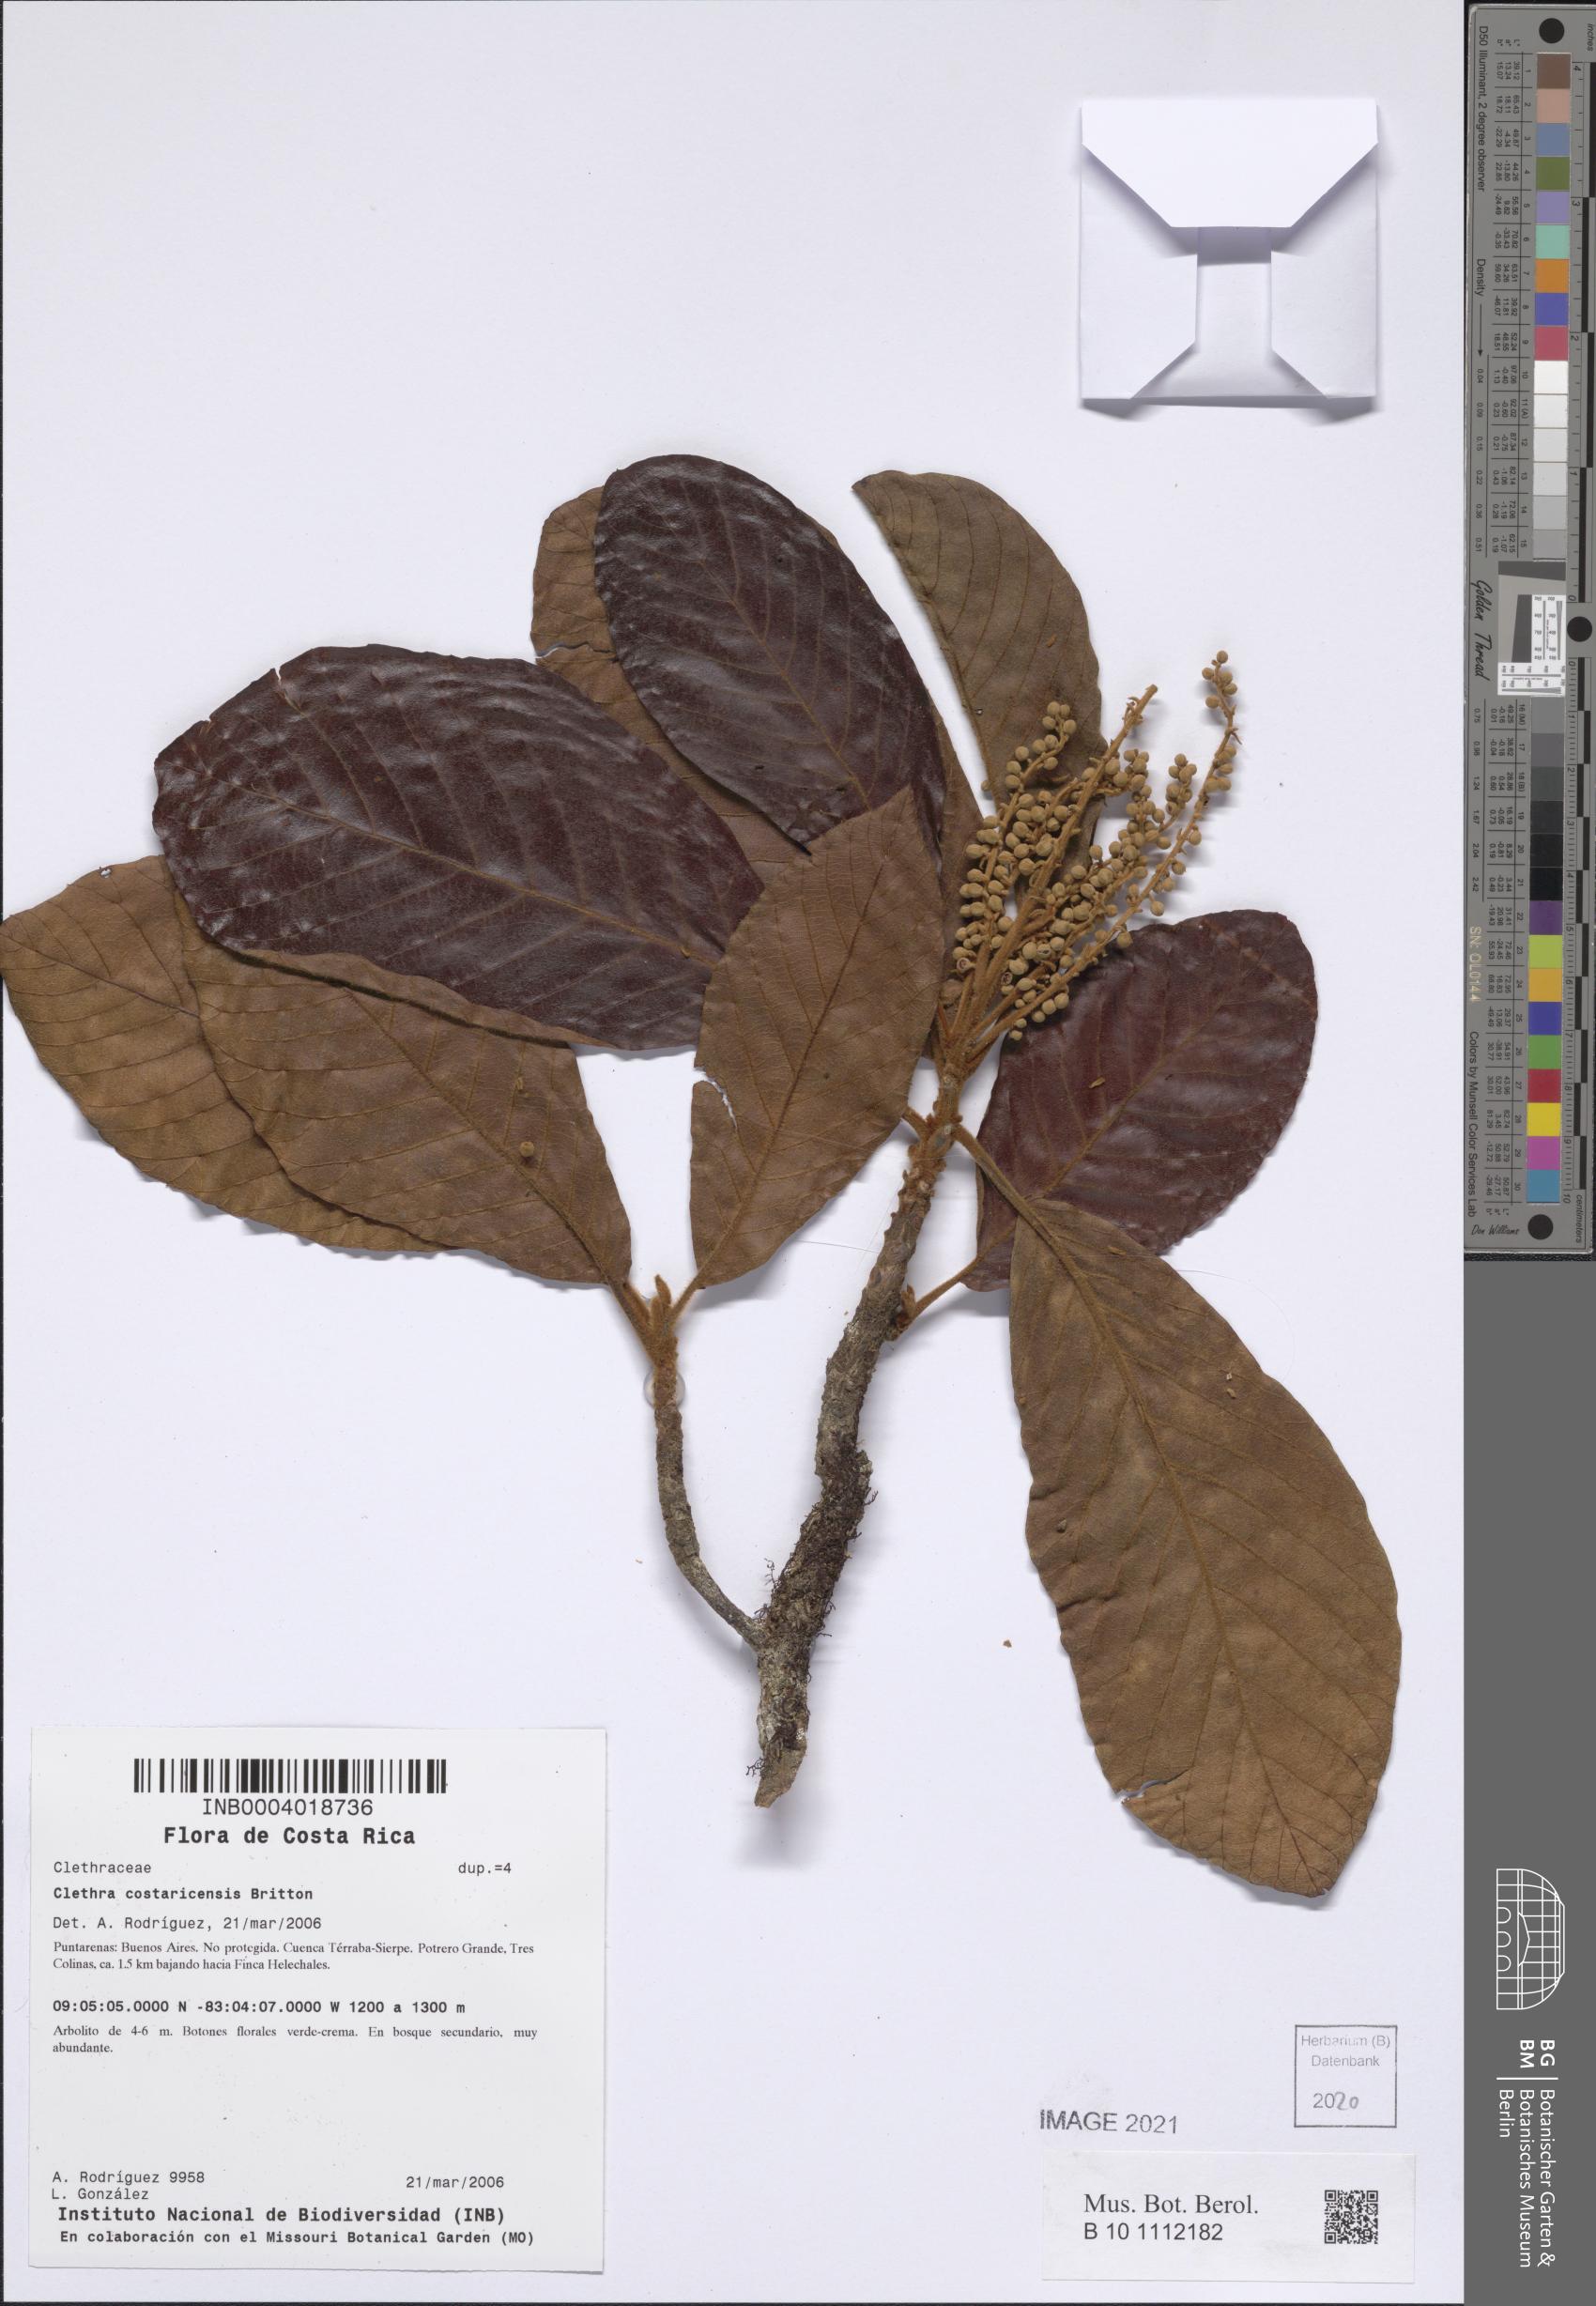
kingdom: Plantae
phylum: Tracheophyta
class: Magnoliopsida
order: Ericales
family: Clethraceae
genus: Clethra
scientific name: Clethra costaricensis
